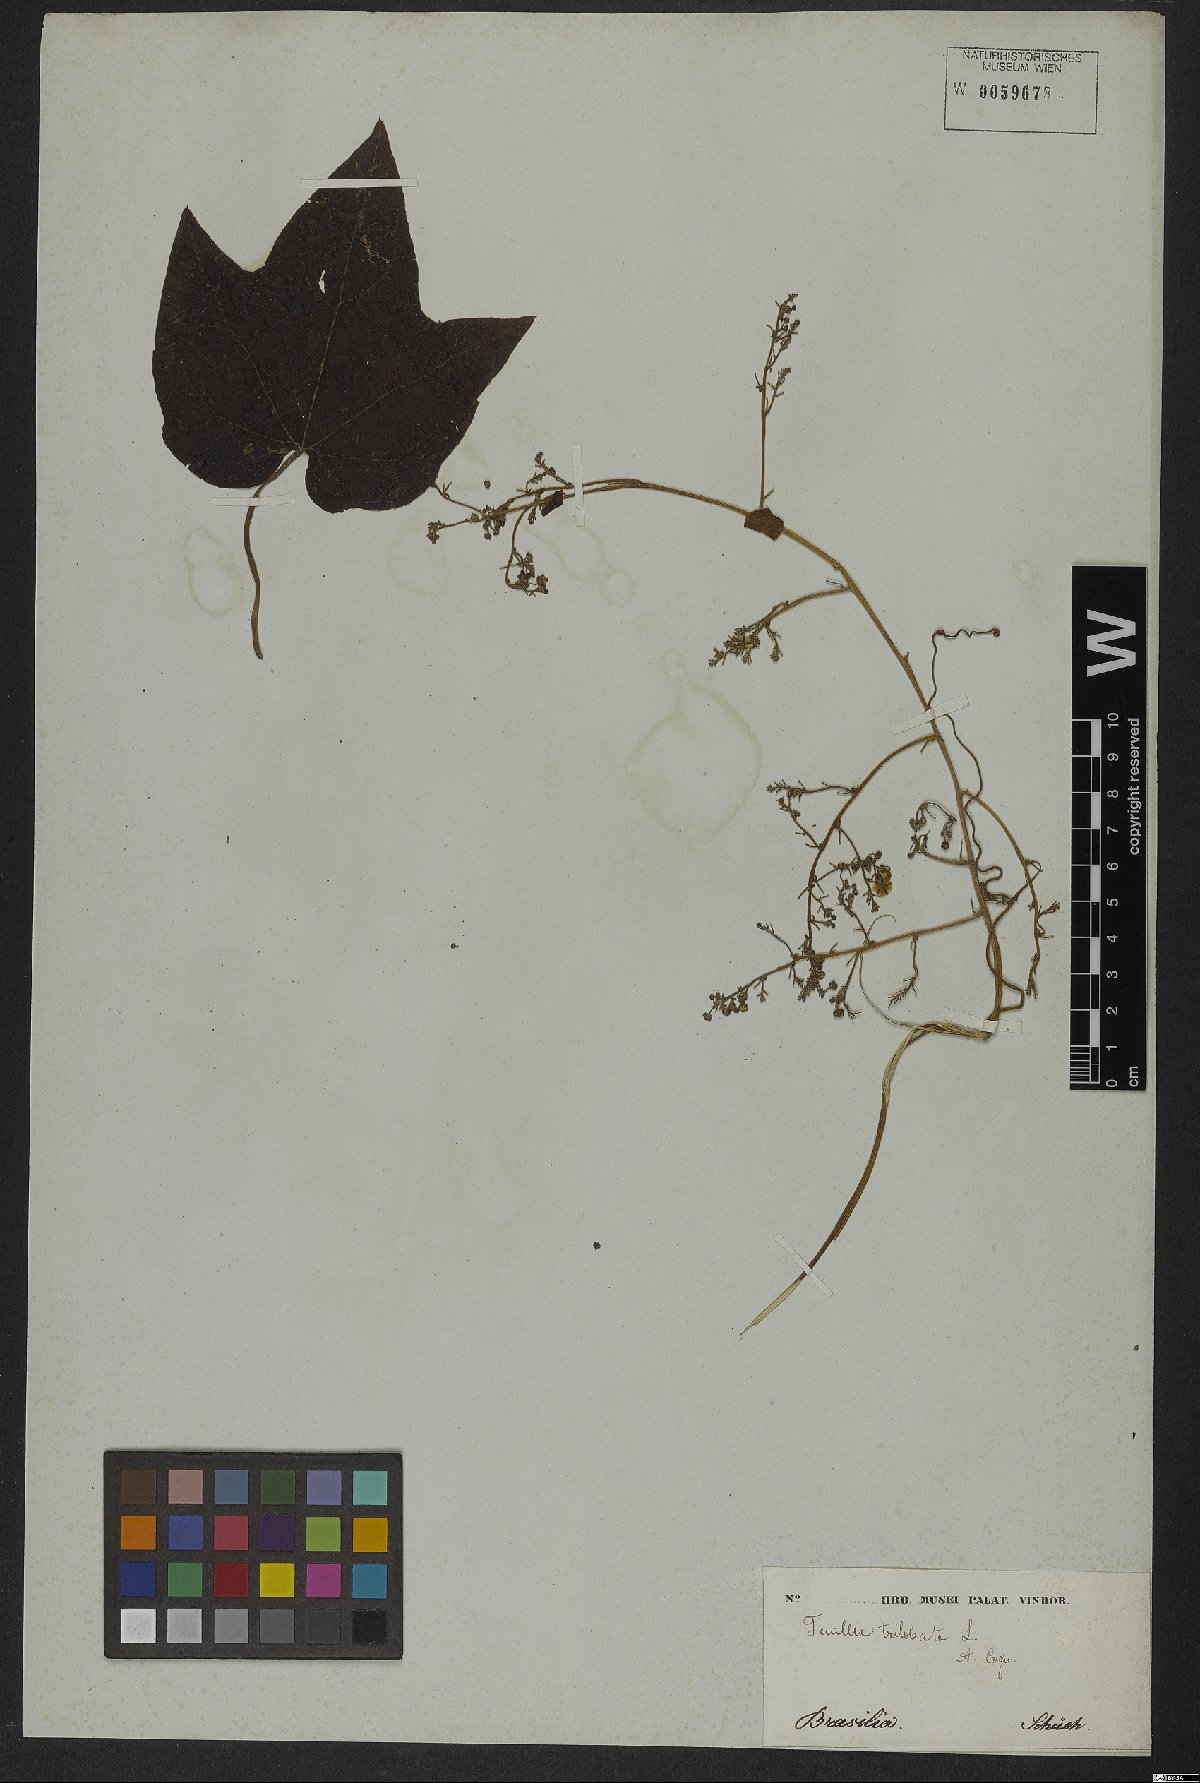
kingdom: Plantae
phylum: Tracheophyta
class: Magnoliopsida
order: Cucurbitales
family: Cucurbitaceae
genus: Fevillea
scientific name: Fevillea trilobata
